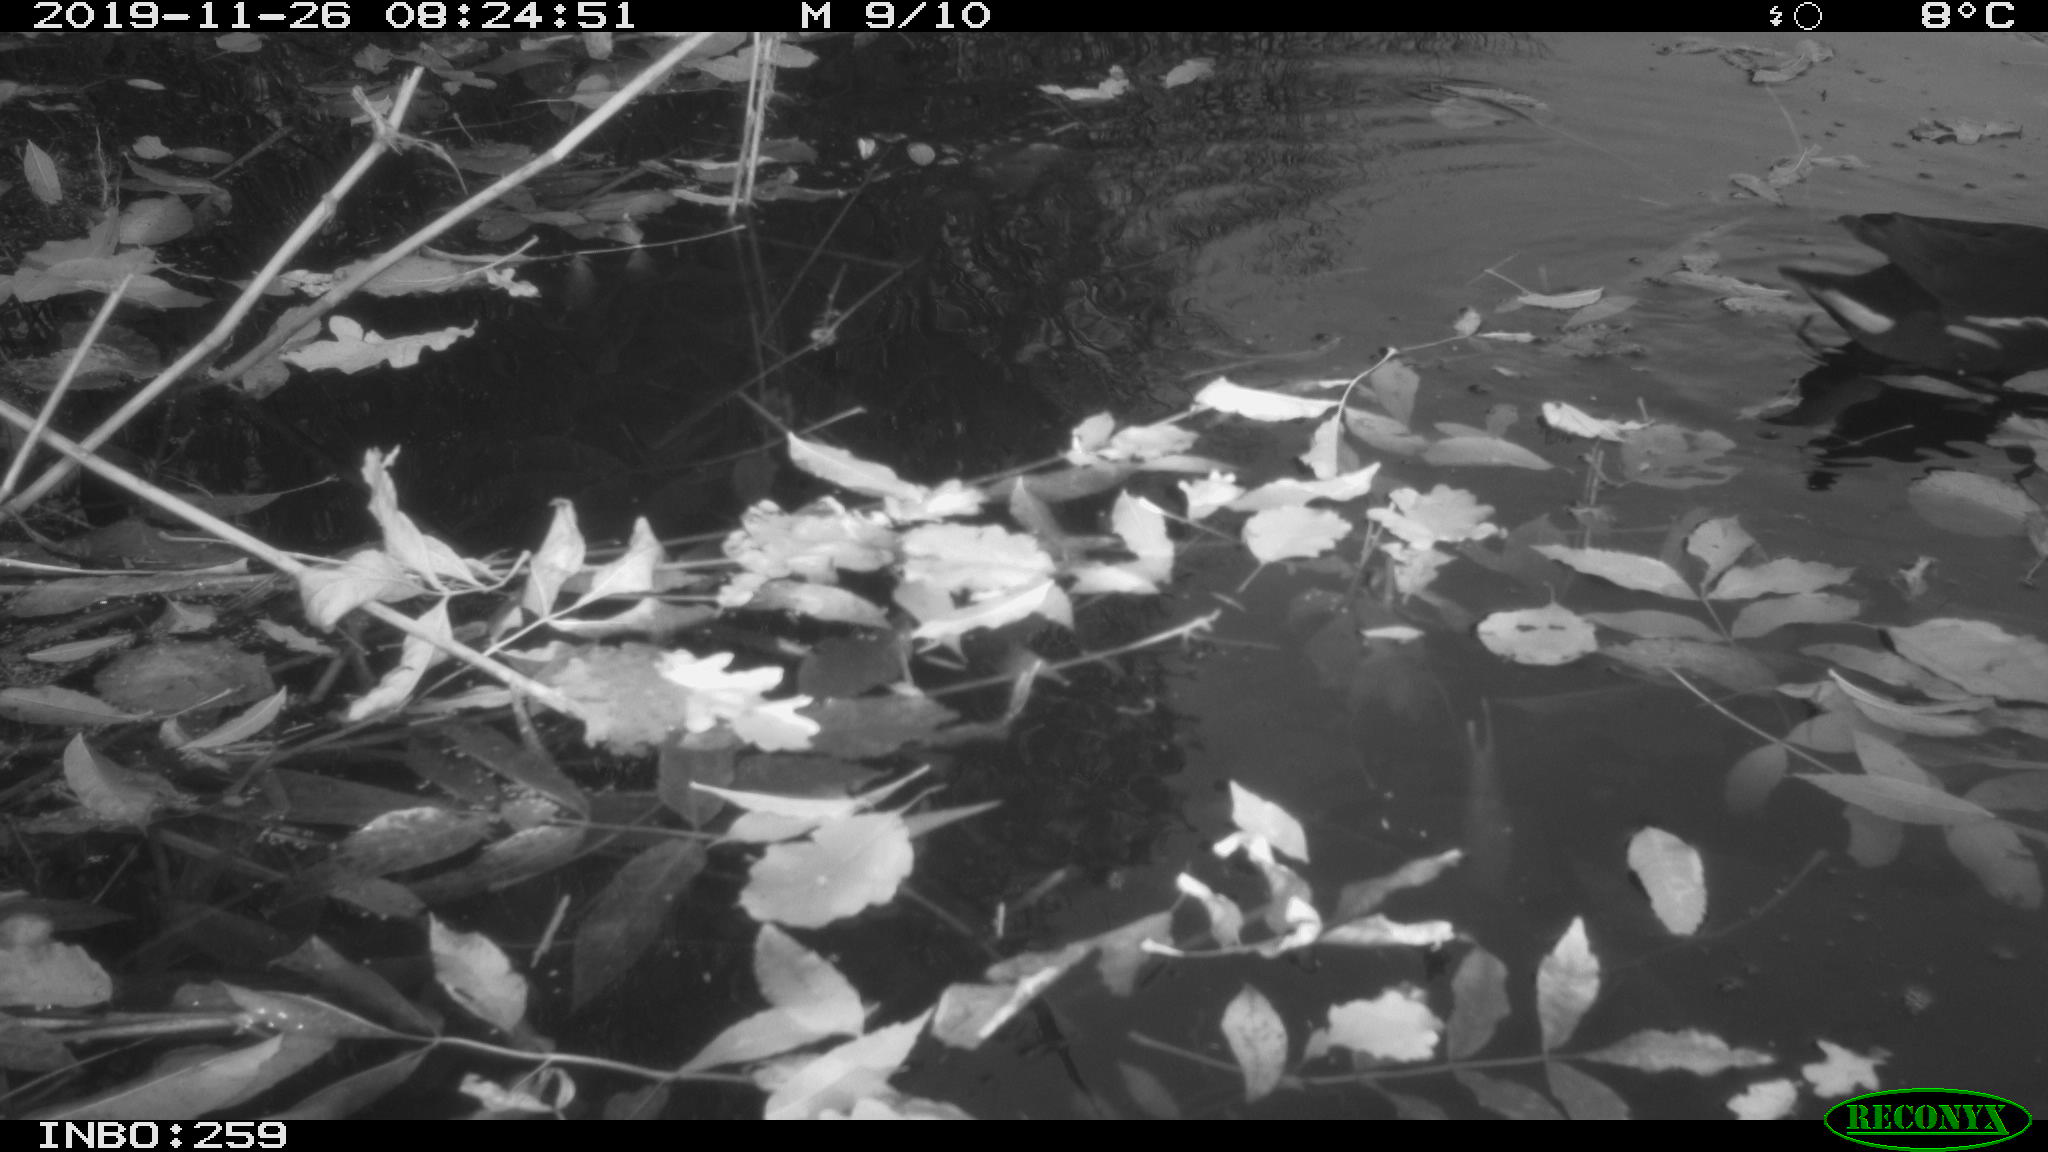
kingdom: Animalia
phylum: Chordata
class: Aves
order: Gruiformes
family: Rallidae
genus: Gallinula
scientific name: Gallinula chloropus
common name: Common moorhen
